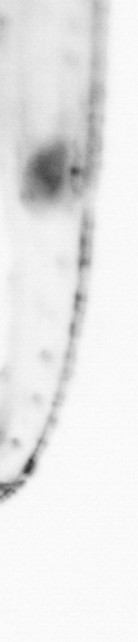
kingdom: Animalia
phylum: Chordata
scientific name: Chordata
